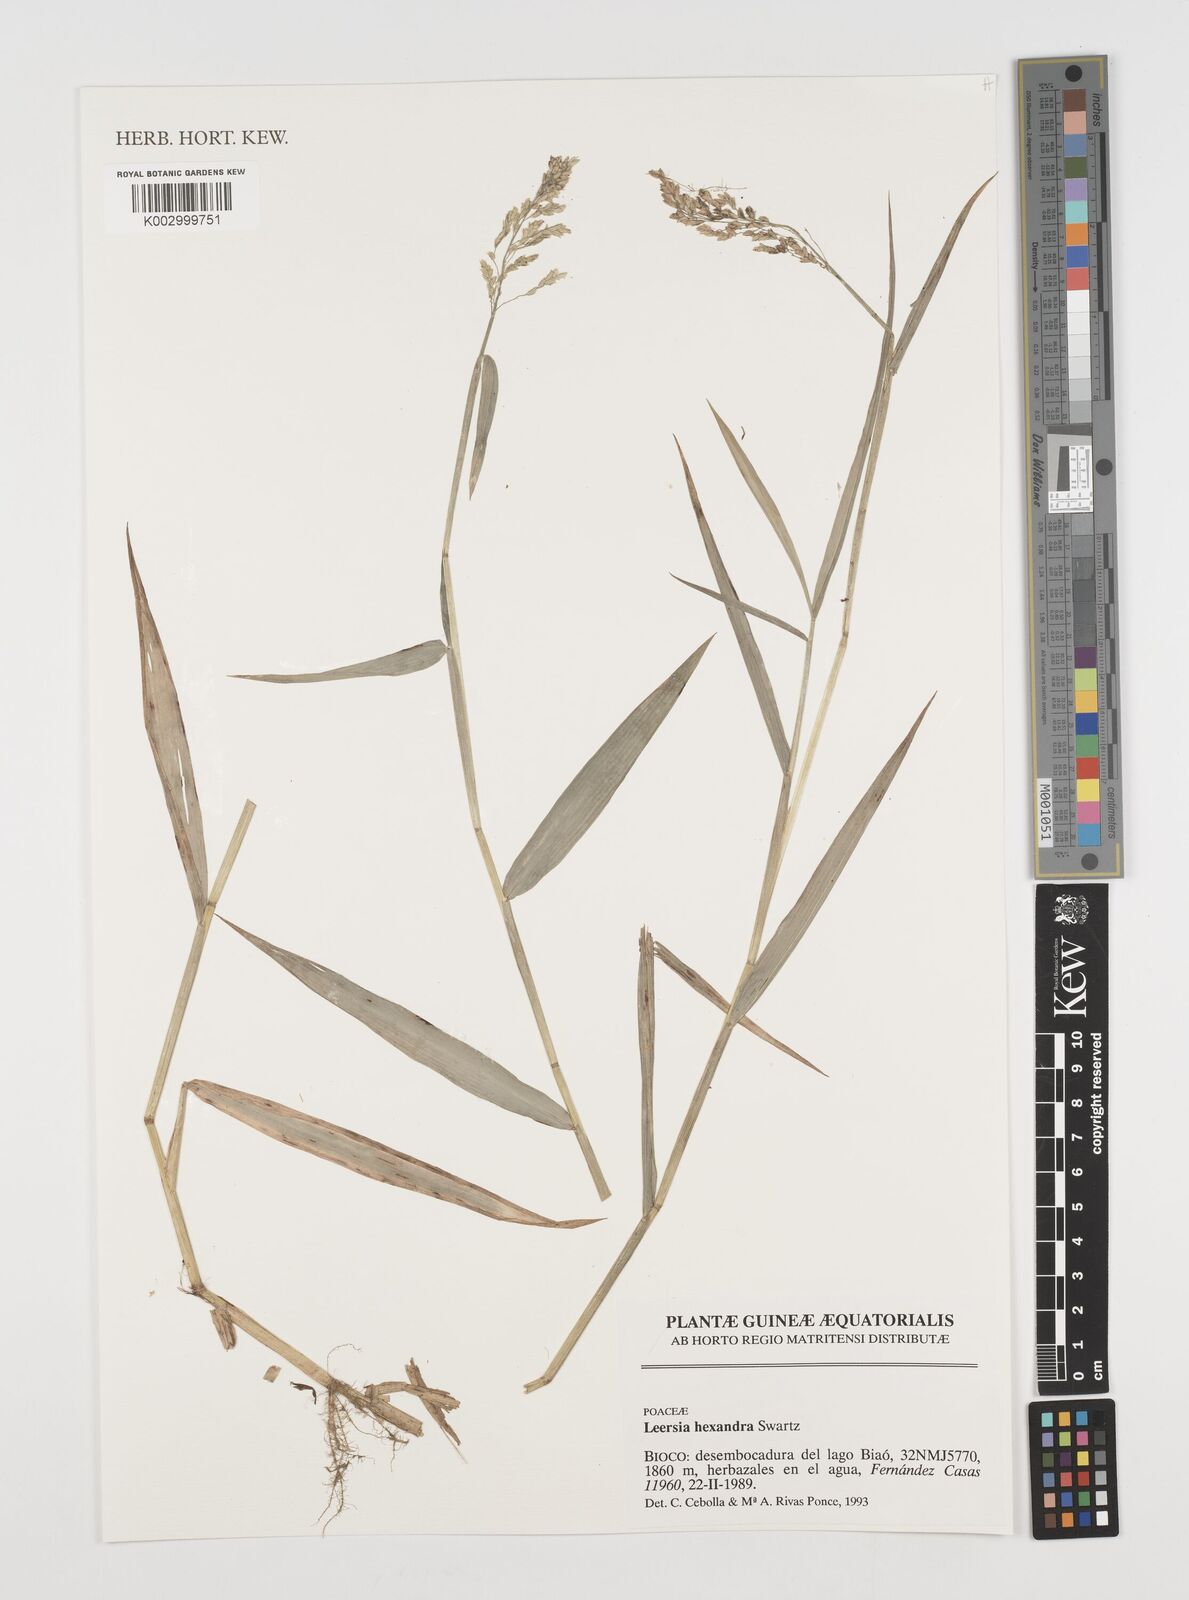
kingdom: Plantae
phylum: Tracheophyta
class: Liliopsida
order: Poales
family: Poaceae
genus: Leersia
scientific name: Leersia hexandra
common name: Southern cut grass
